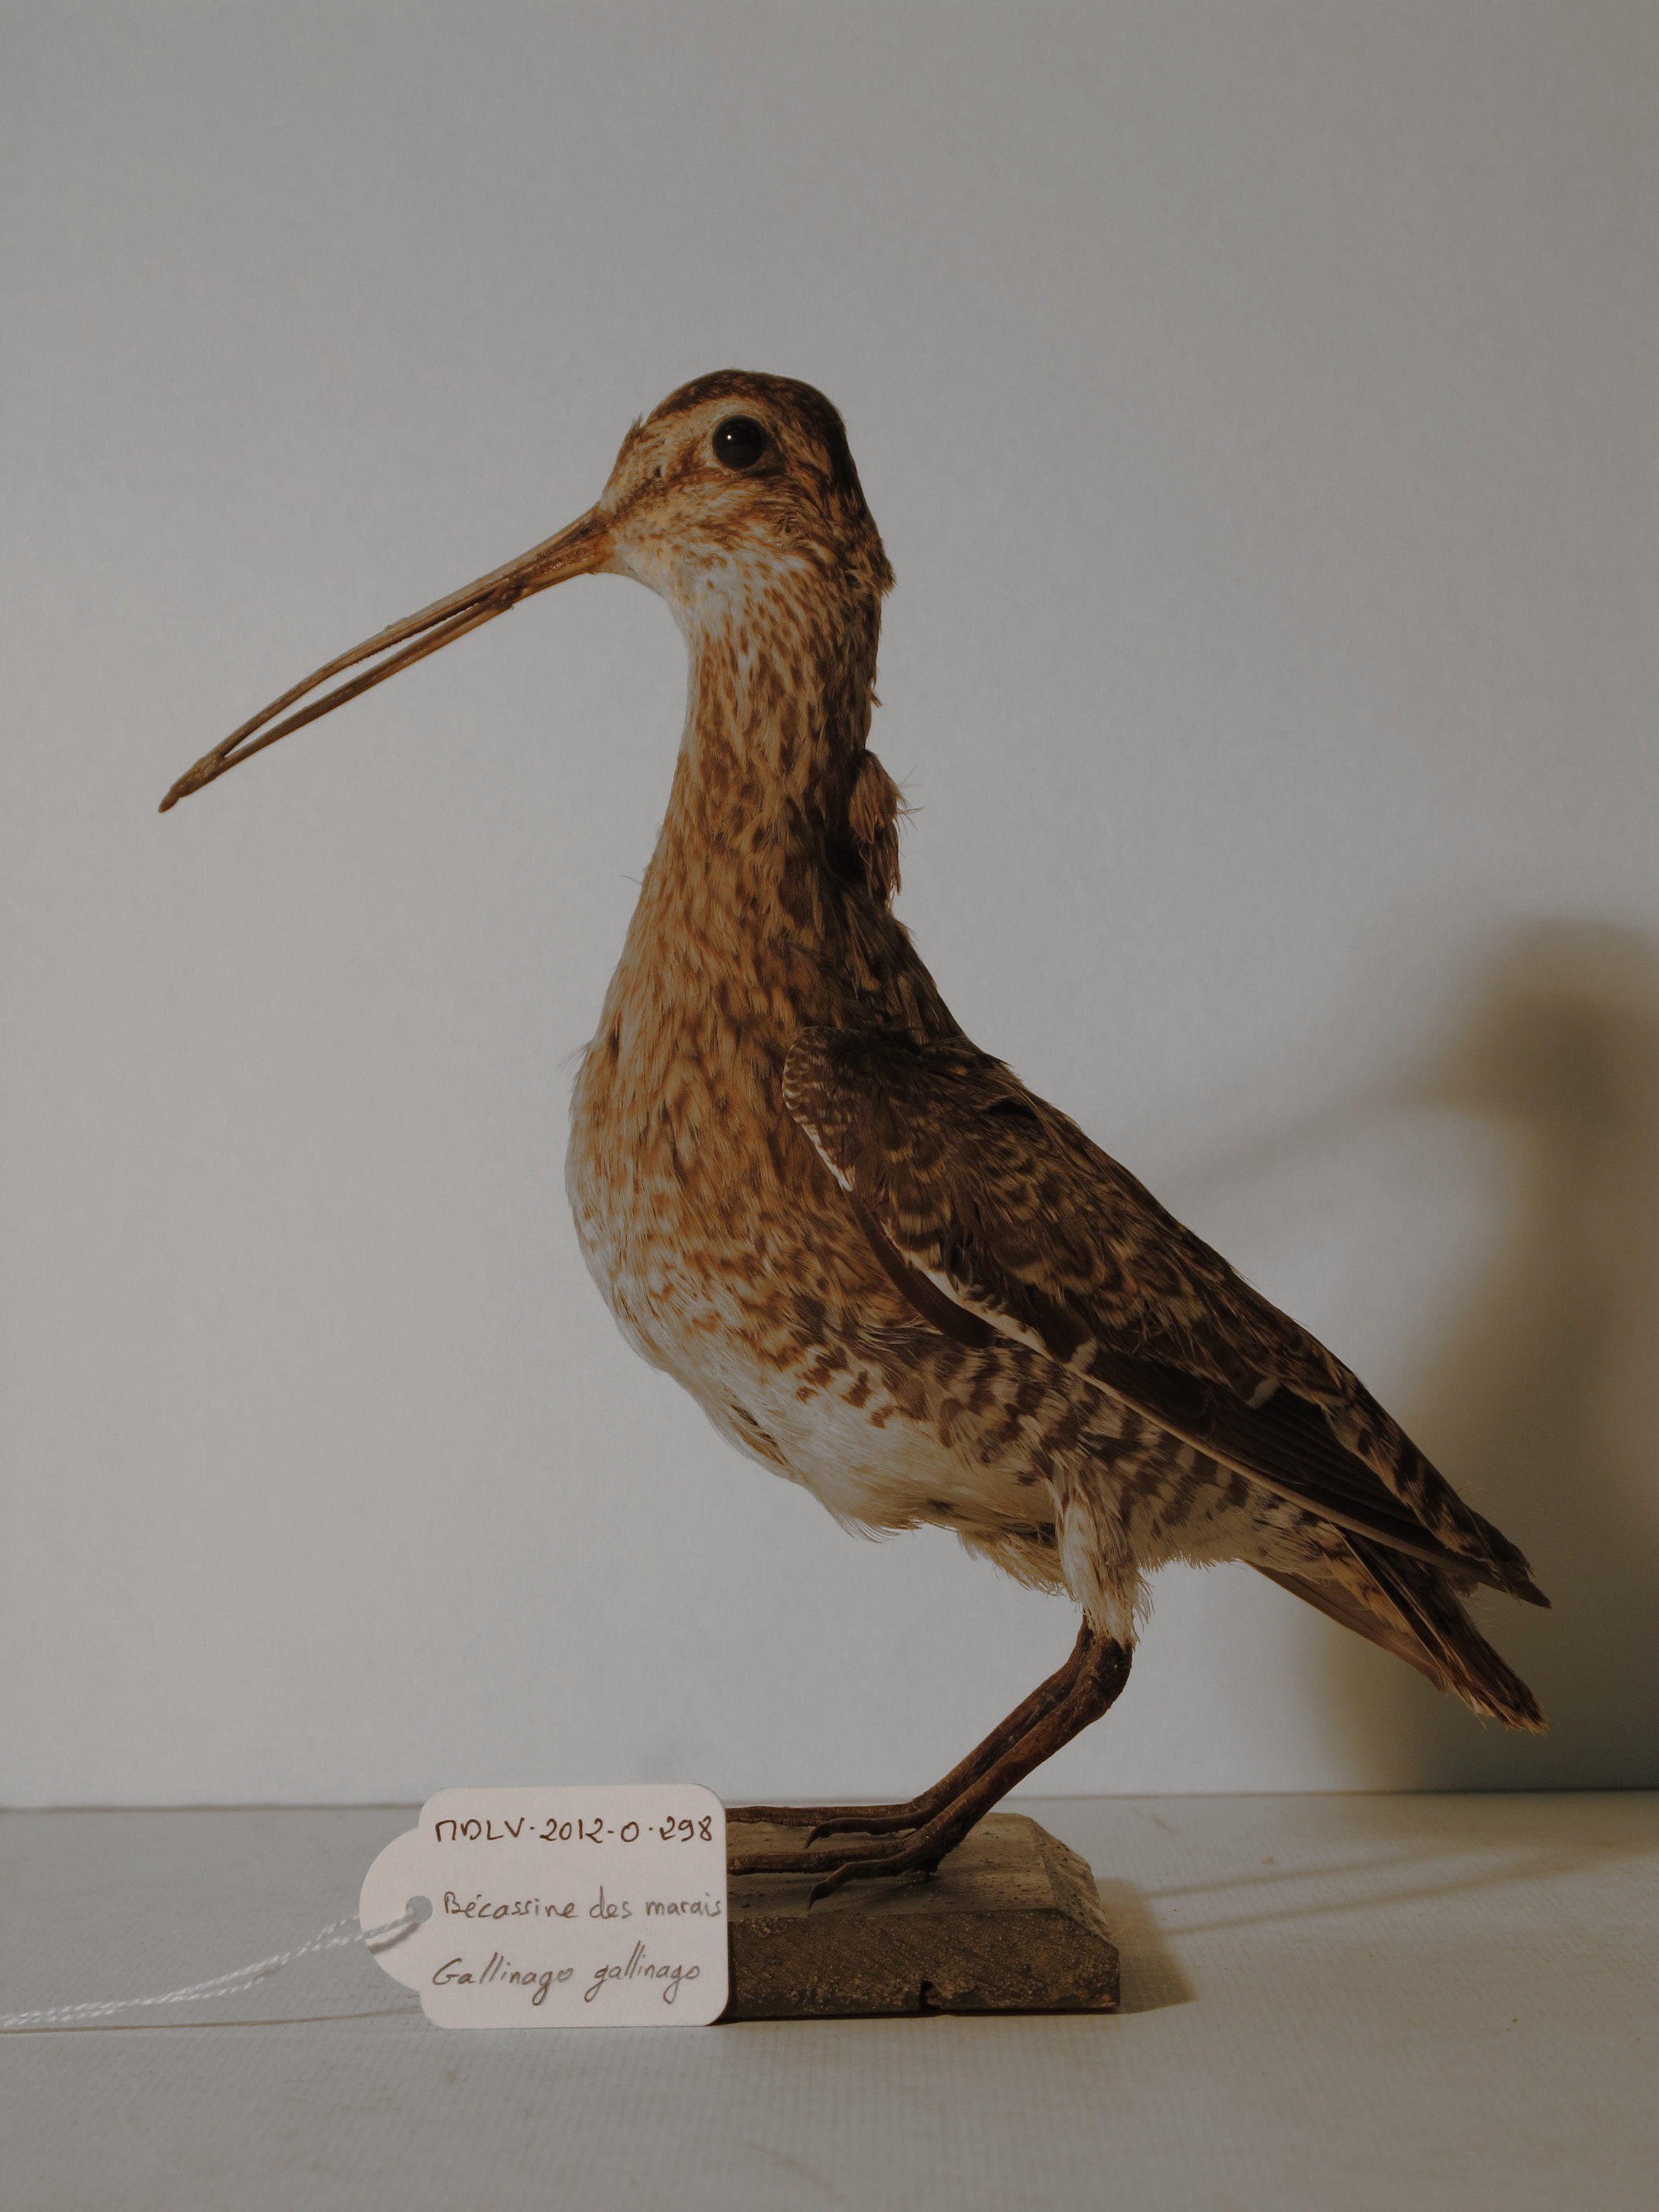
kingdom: Animalia
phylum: Chordata
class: Aves
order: Charadriiformes
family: Scolopacidae
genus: Gallinago
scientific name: Gallinago gallinago
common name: Common Snipe
